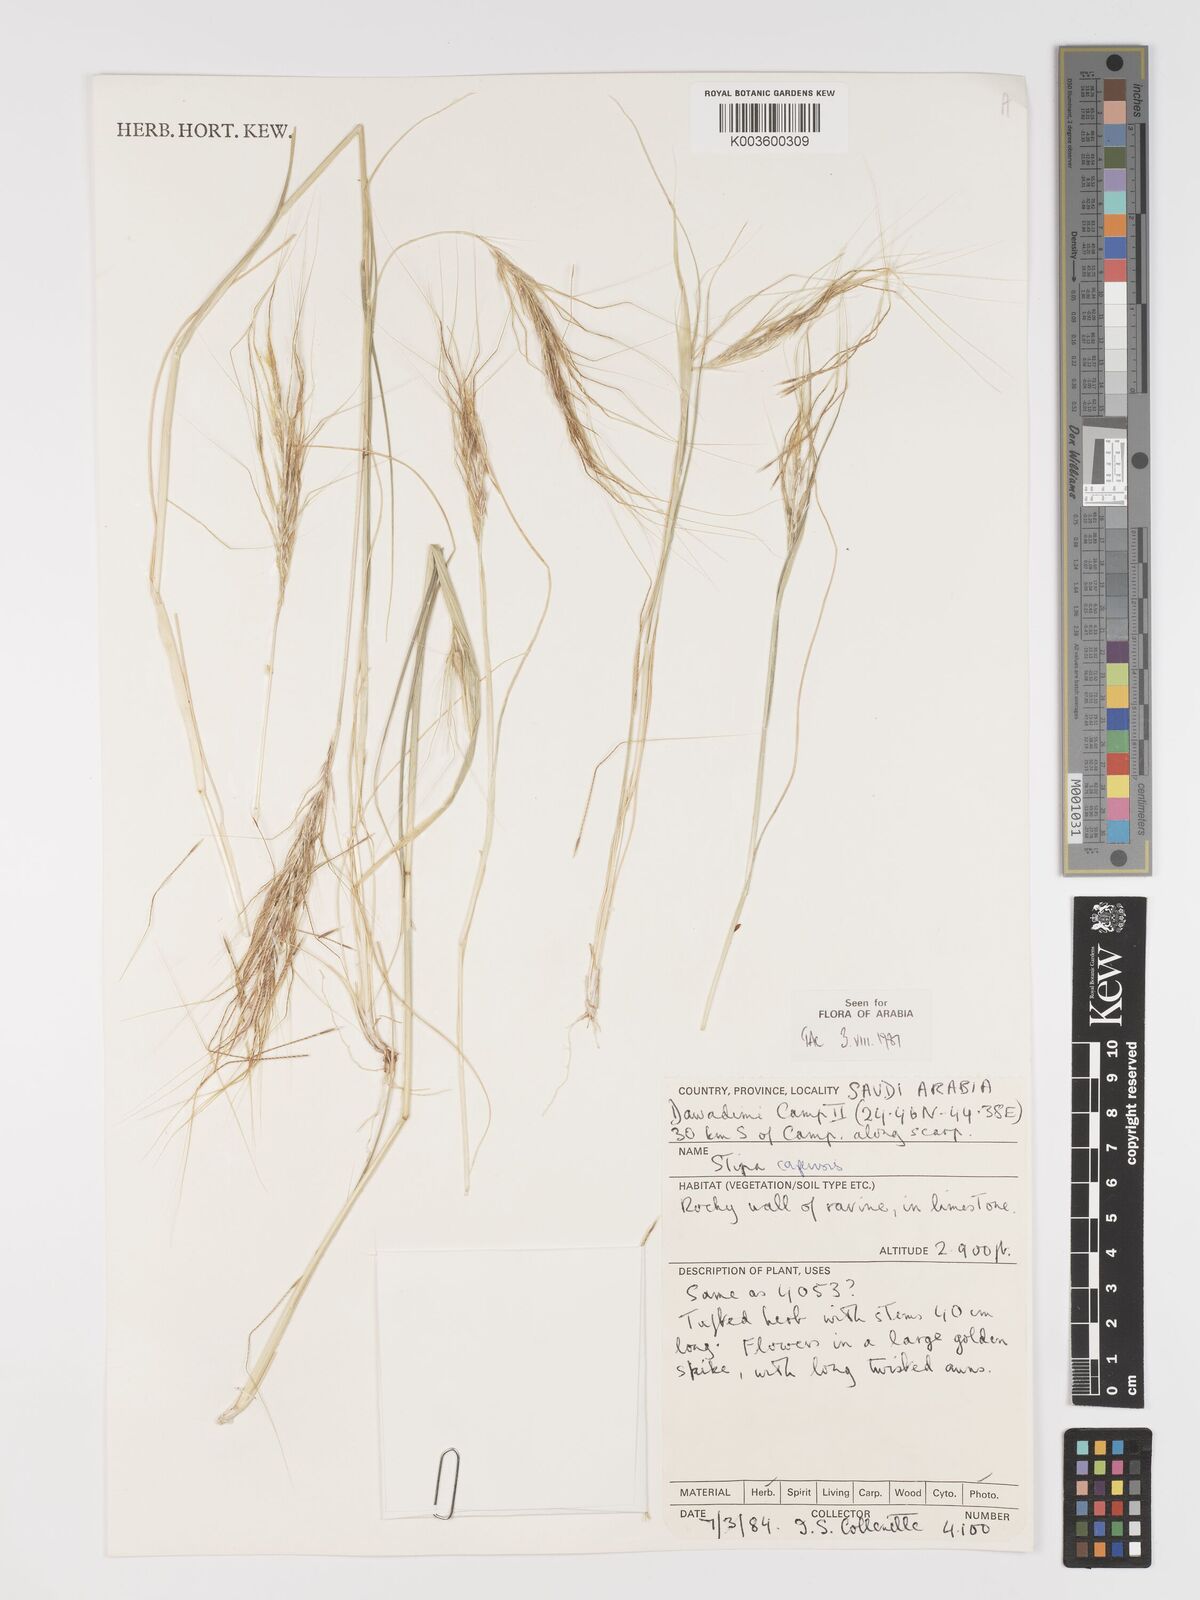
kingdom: Plantae
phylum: Tracheophyta
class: Liliopsida
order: Poales
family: Poaceae
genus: Stipellula
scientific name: Stipellula capensis
